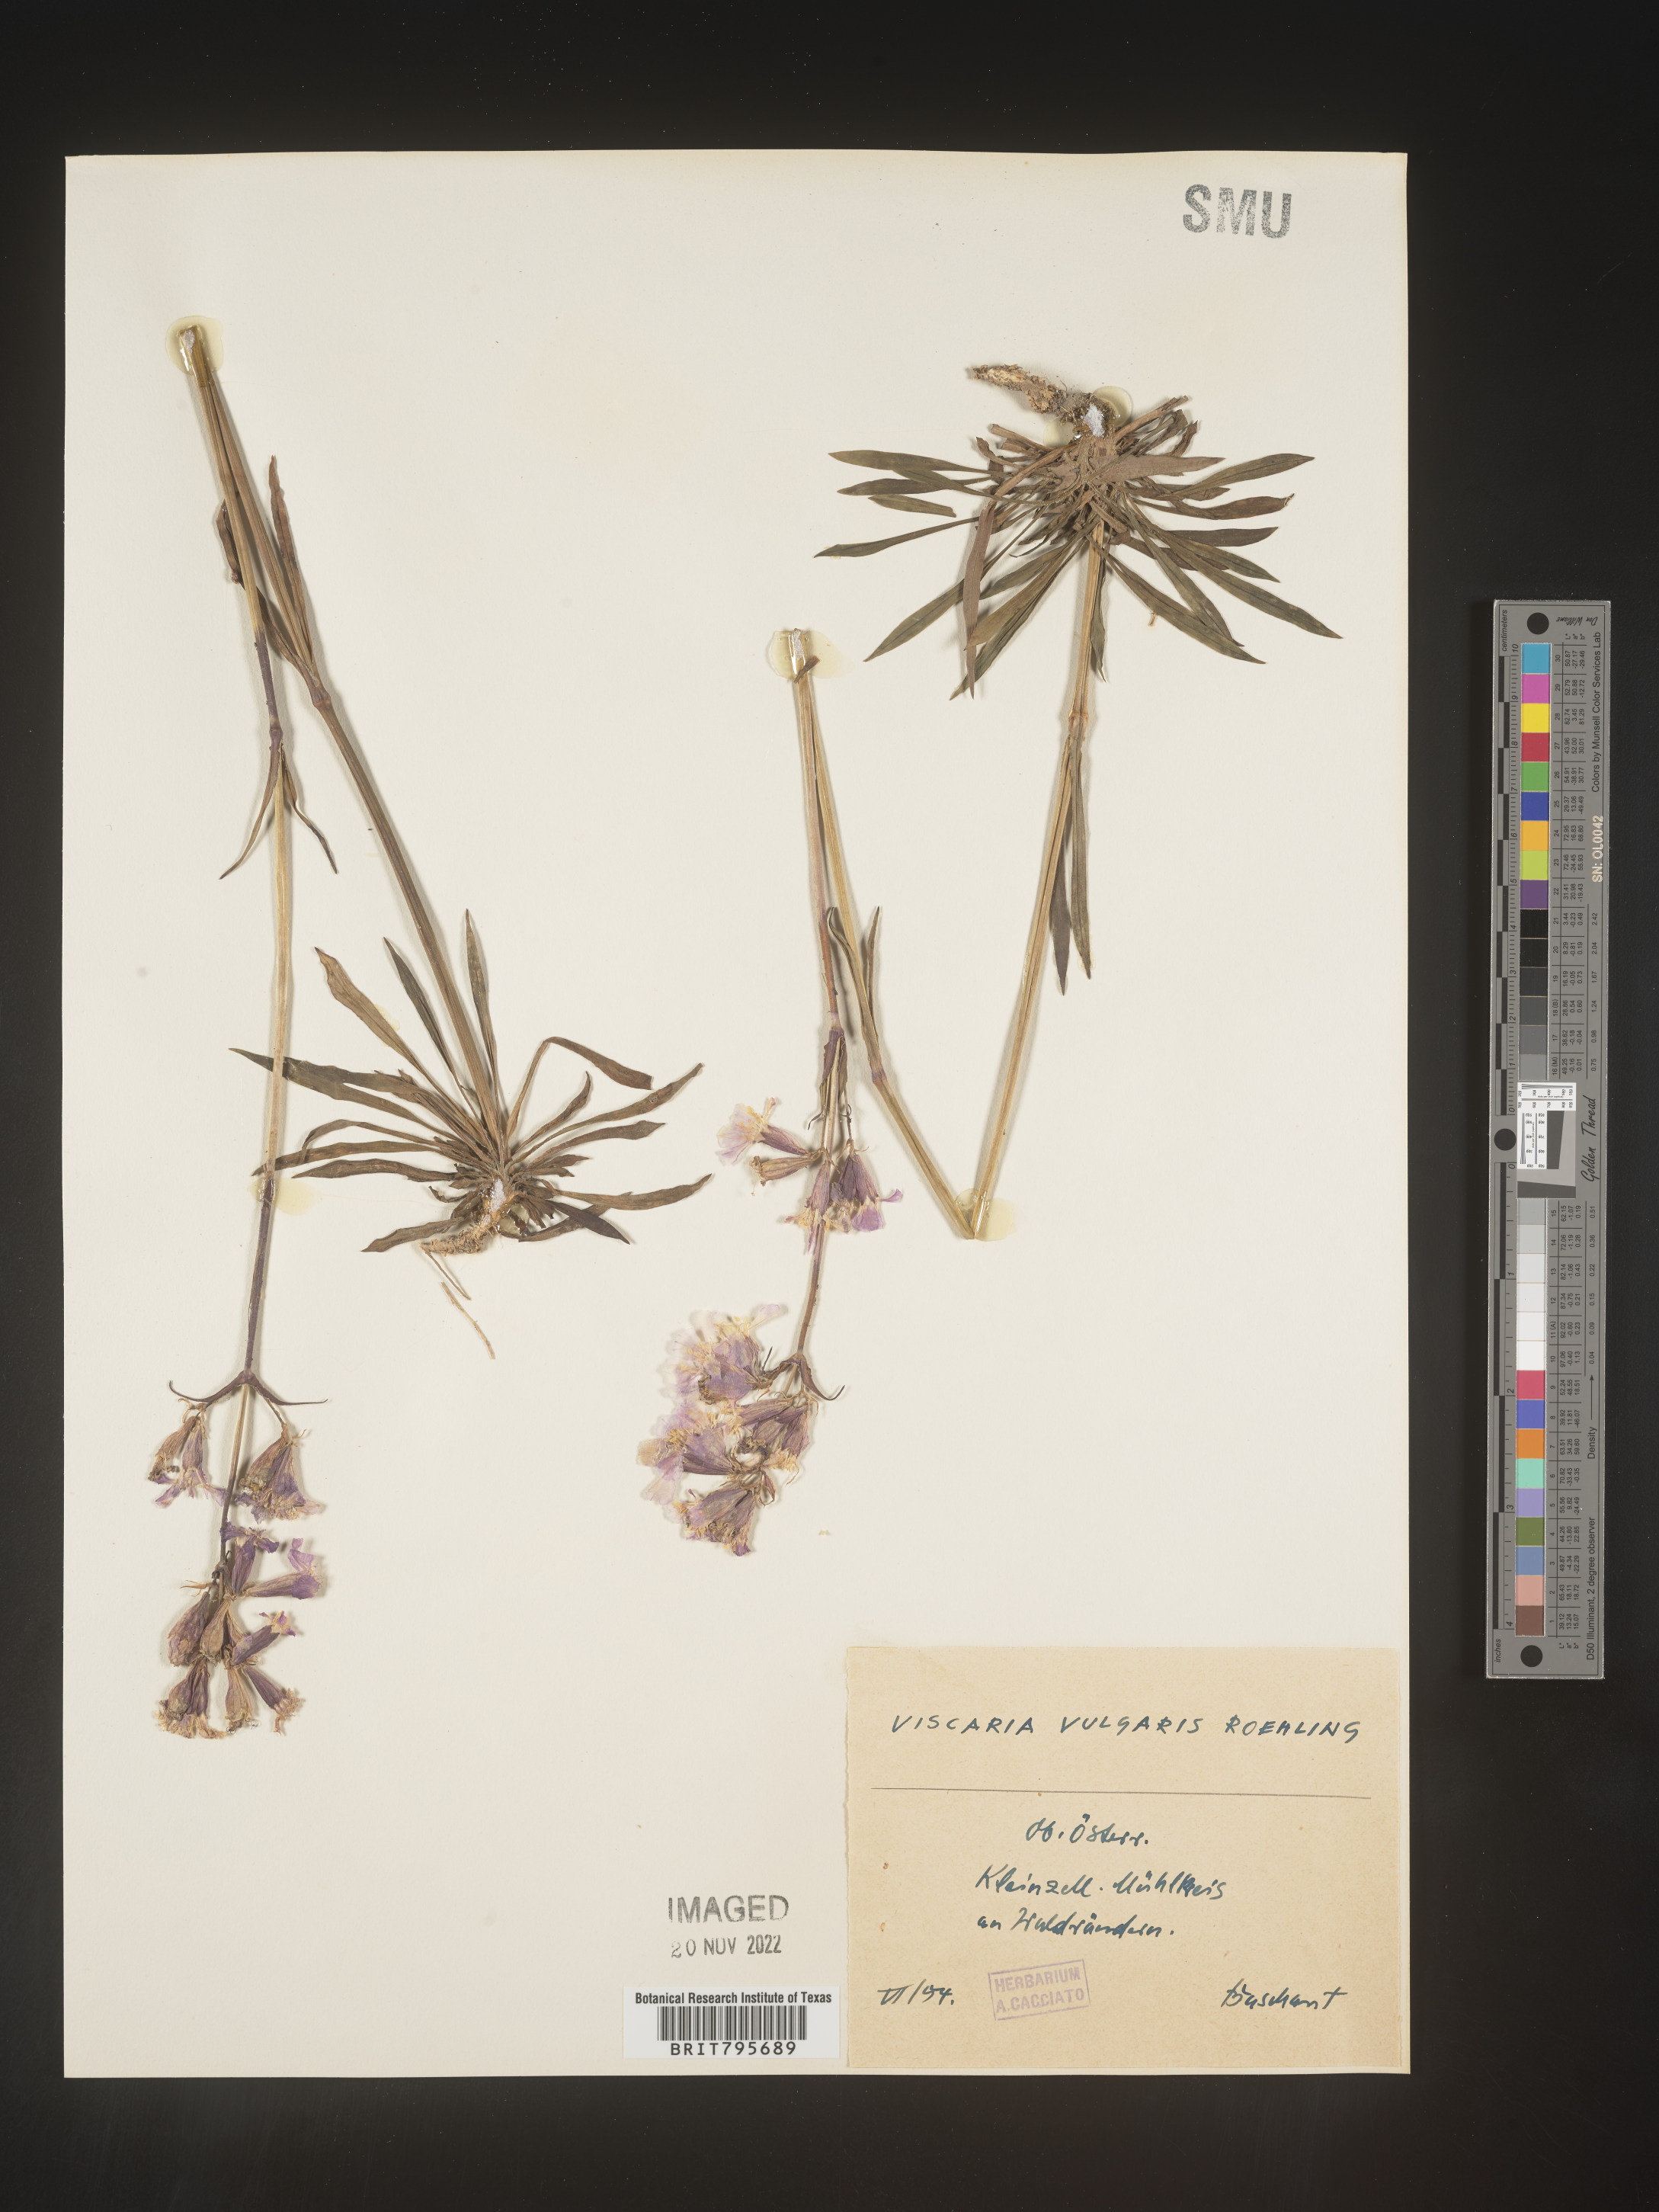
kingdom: Plantae
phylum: Tracheophyta
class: Magnoliopsida
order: Caryophyllales
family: Caryophyllaceae
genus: Viscaria
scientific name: Viscaria
